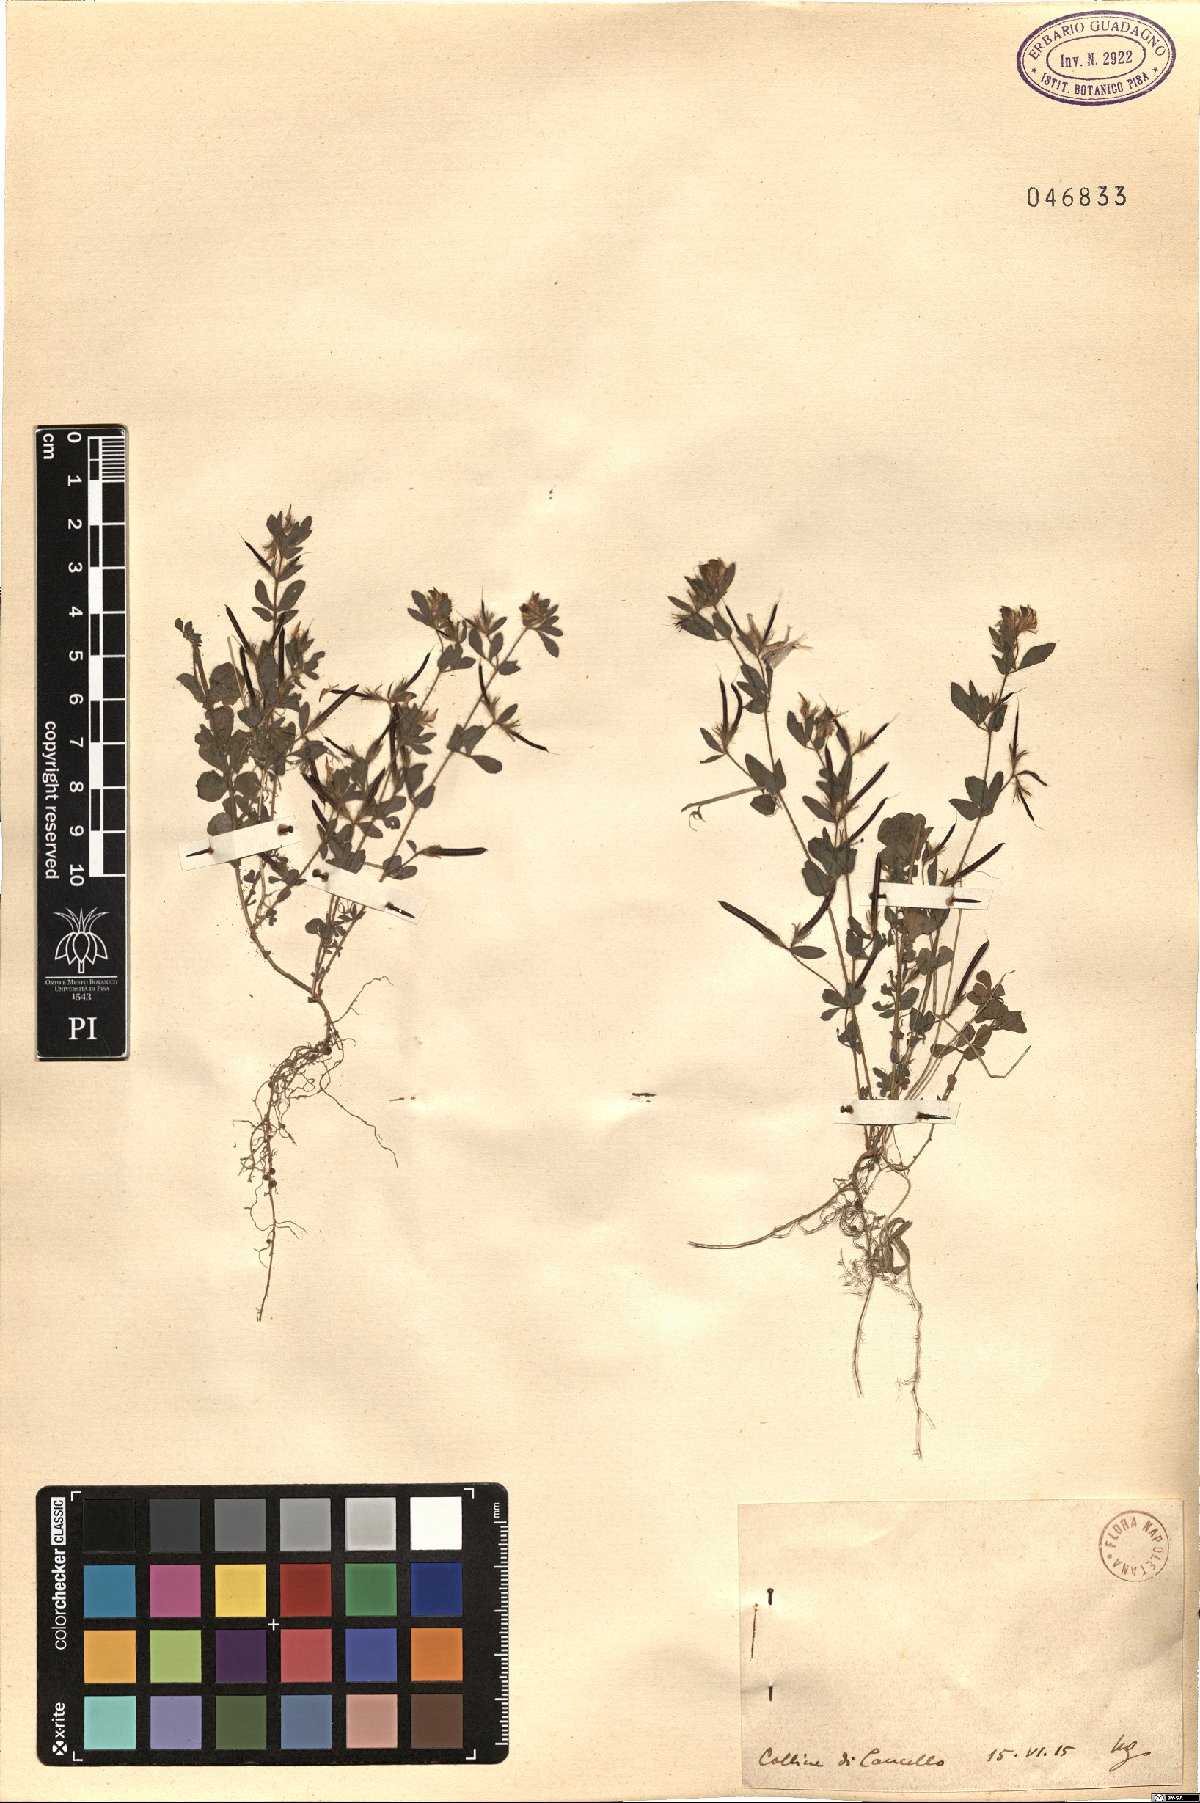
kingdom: Plantae
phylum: Tracheophyta
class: Magnoliopsida
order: Fabales
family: Fabaceae
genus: Lotus
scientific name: Lotus
